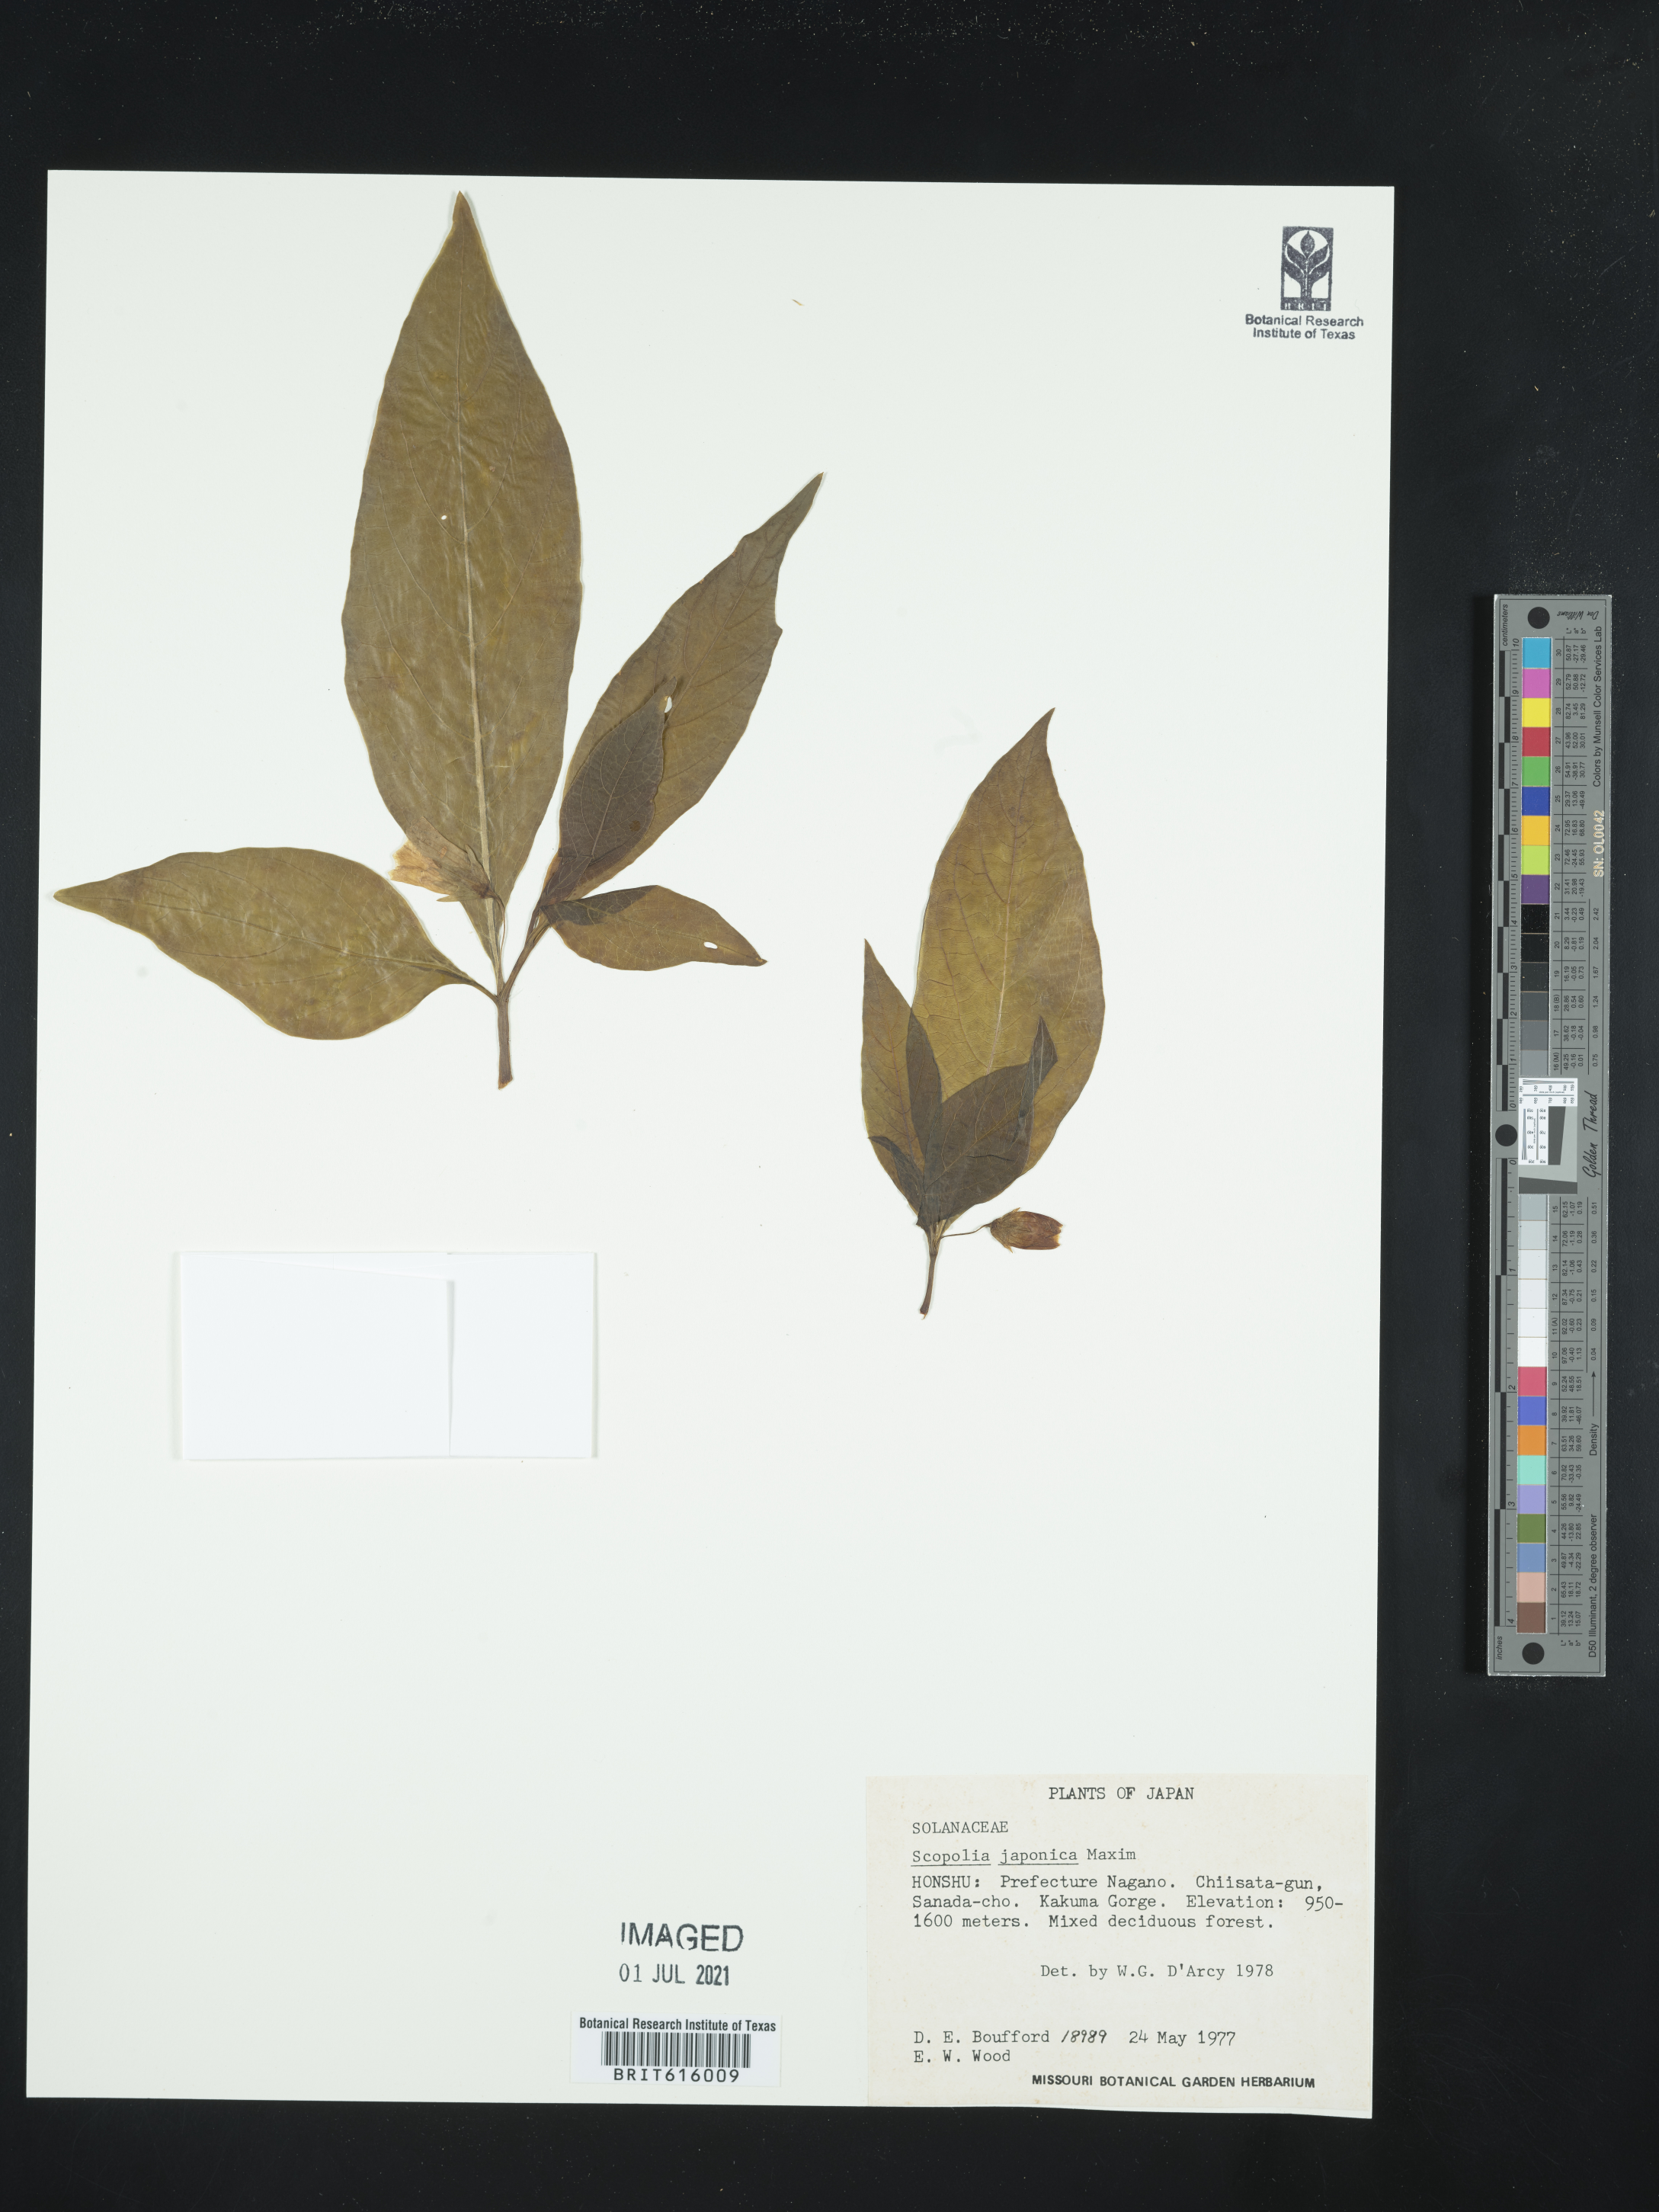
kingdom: Plantae
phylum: Tracheophyta
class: Magnoliopsida
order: Solanales
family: Solanaceae
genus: Scopolia
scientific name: Scopolia japonica
